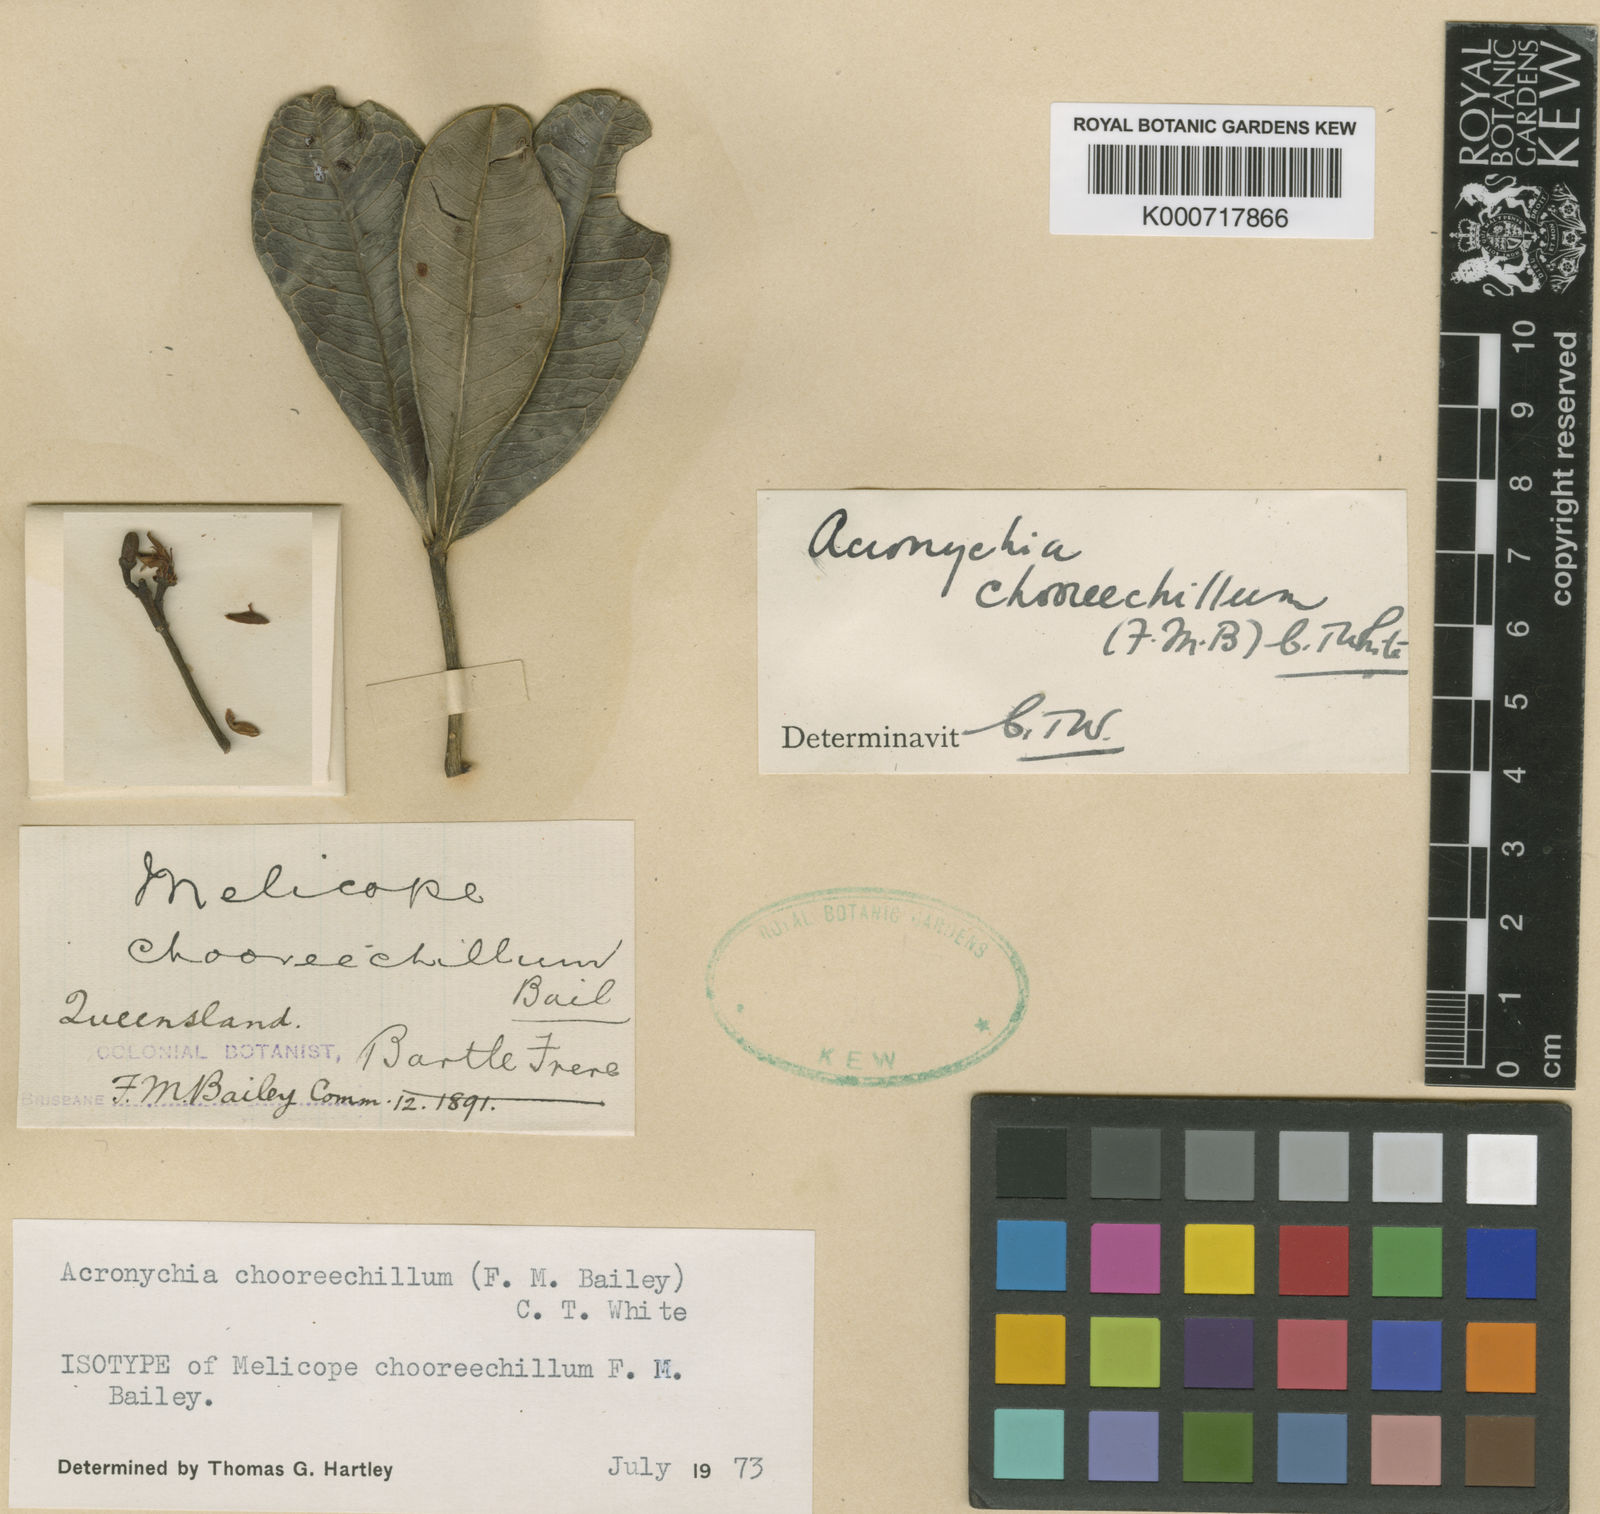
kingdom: Plantae
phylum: Tracheophyta
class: Magnoliopsida
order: Sapindales
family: Rutaceae
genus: Acronychia
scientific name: Acronychia chooreechillum
